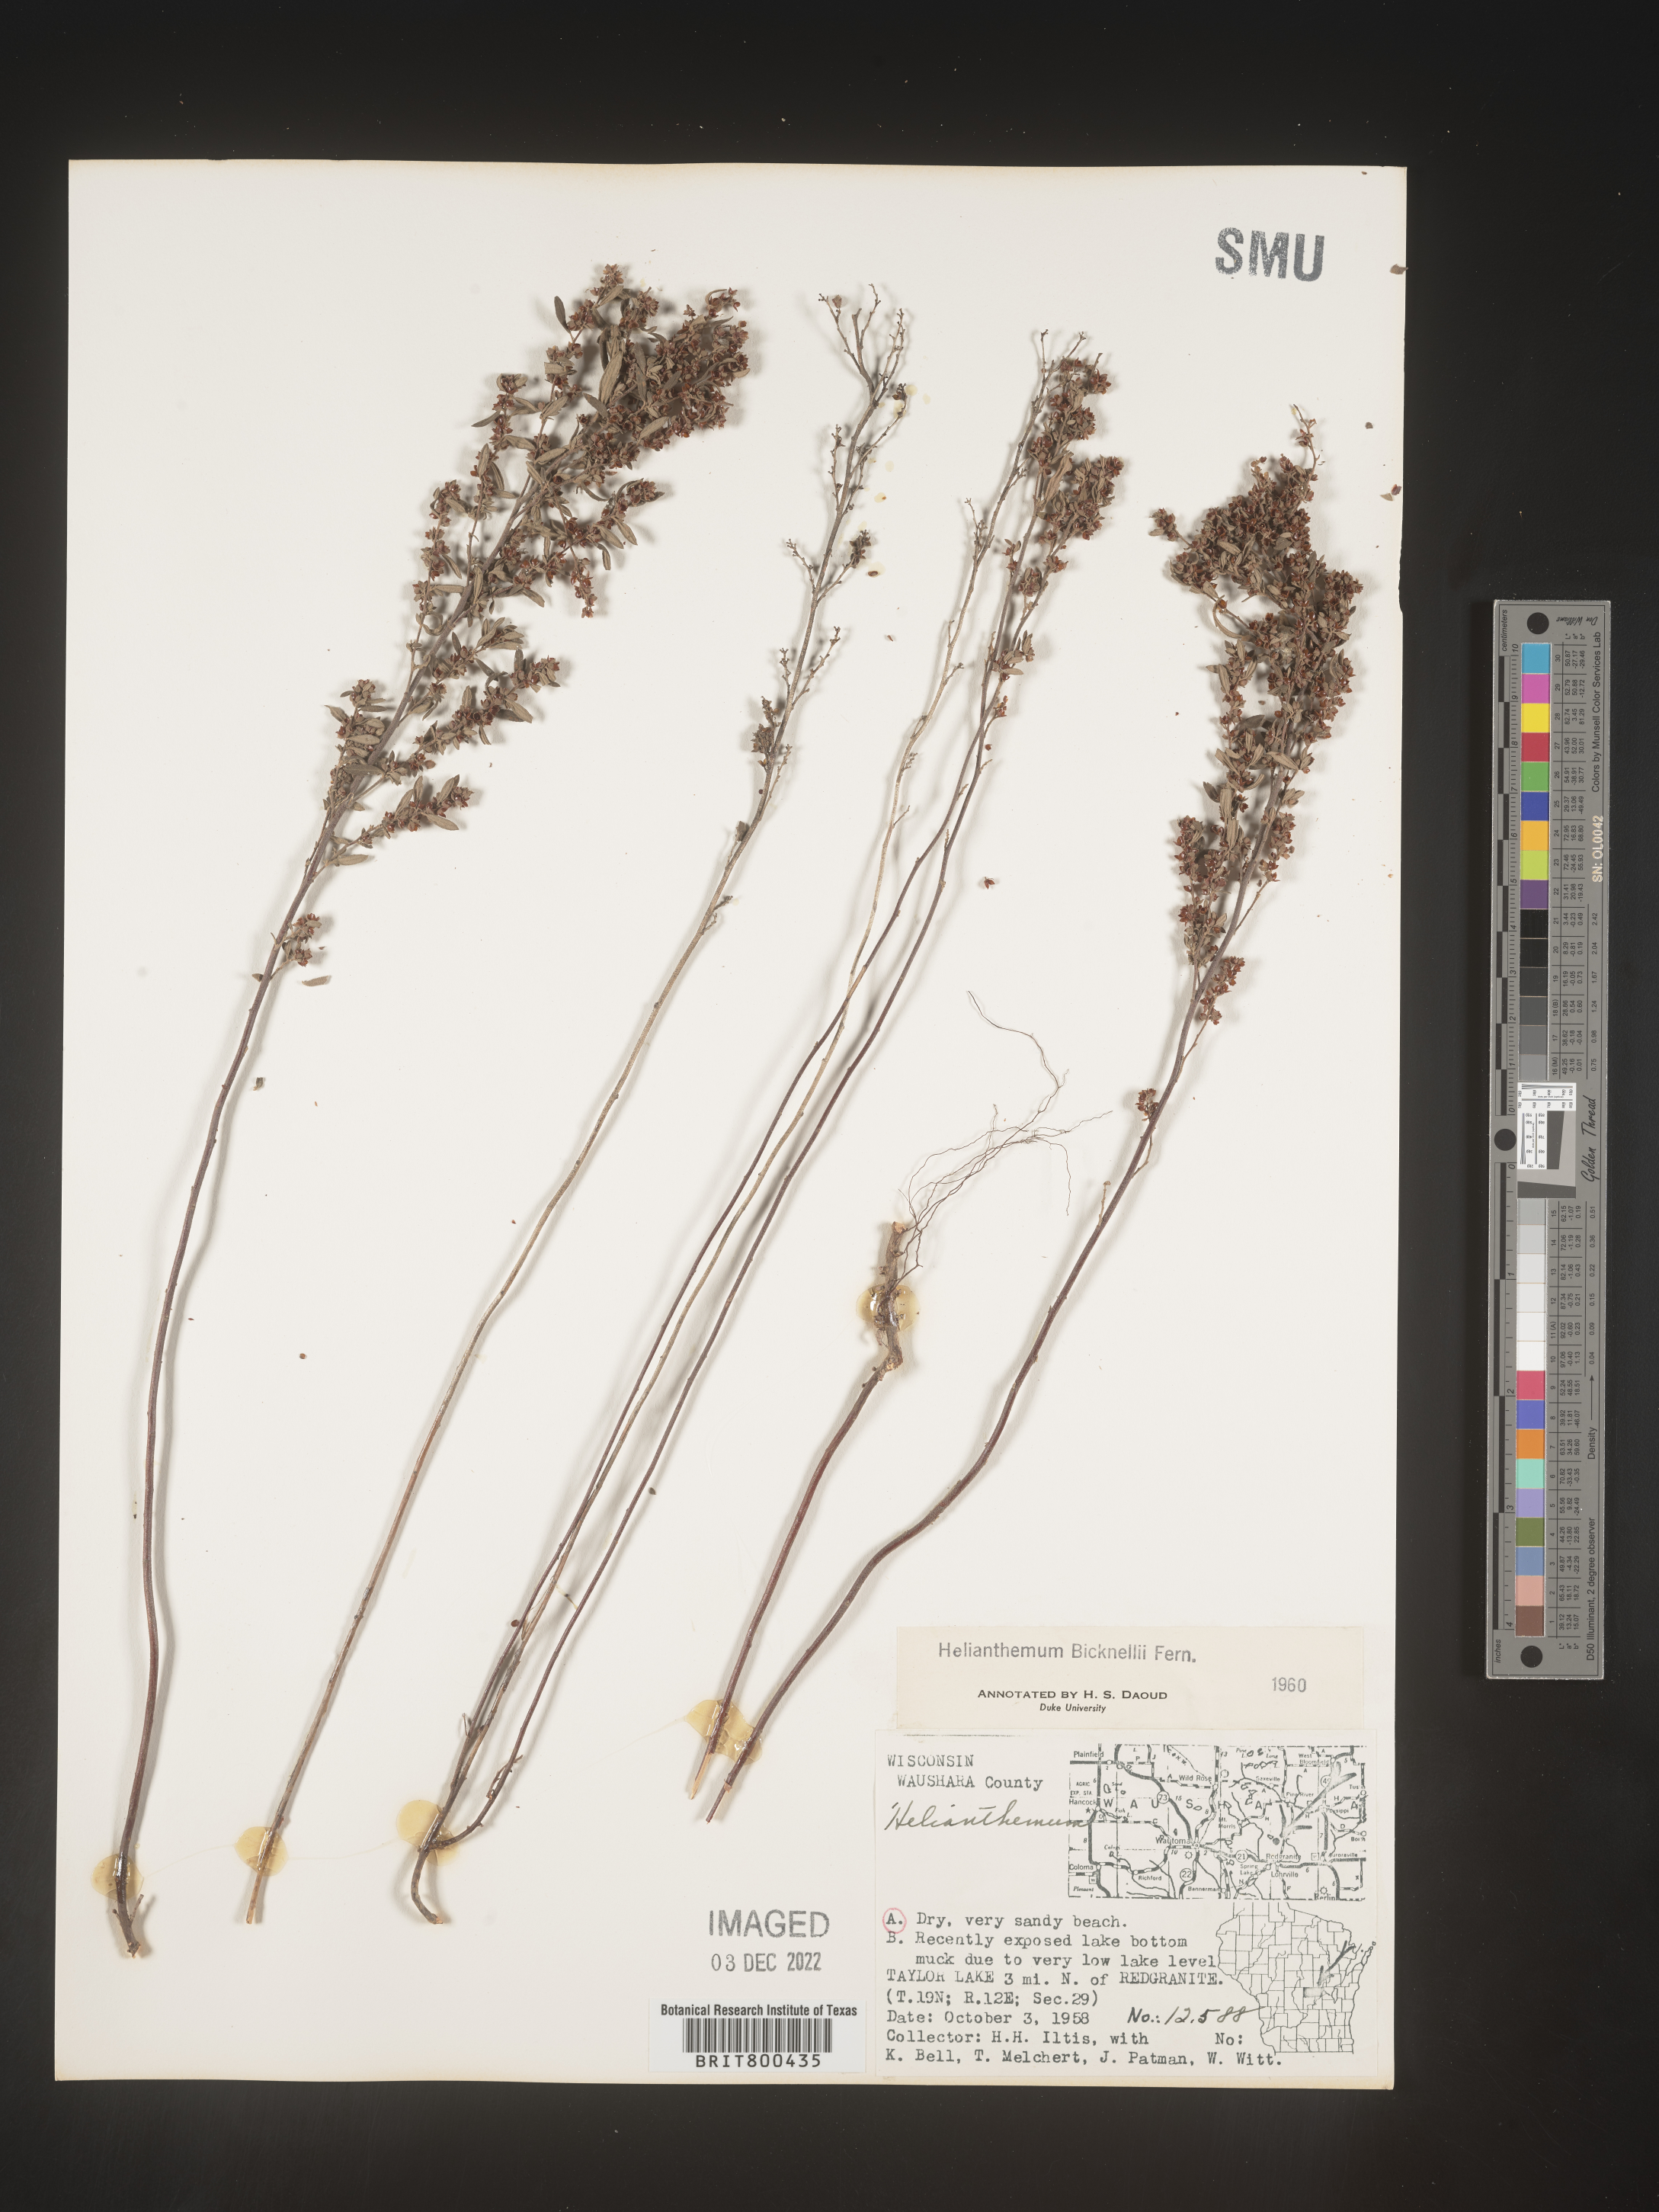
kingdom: Plantae
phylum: Tracheophyta
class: Magnoliopsida
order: Malvales
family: Cistaceae
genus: Helianthemum
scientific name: Helianthemum
